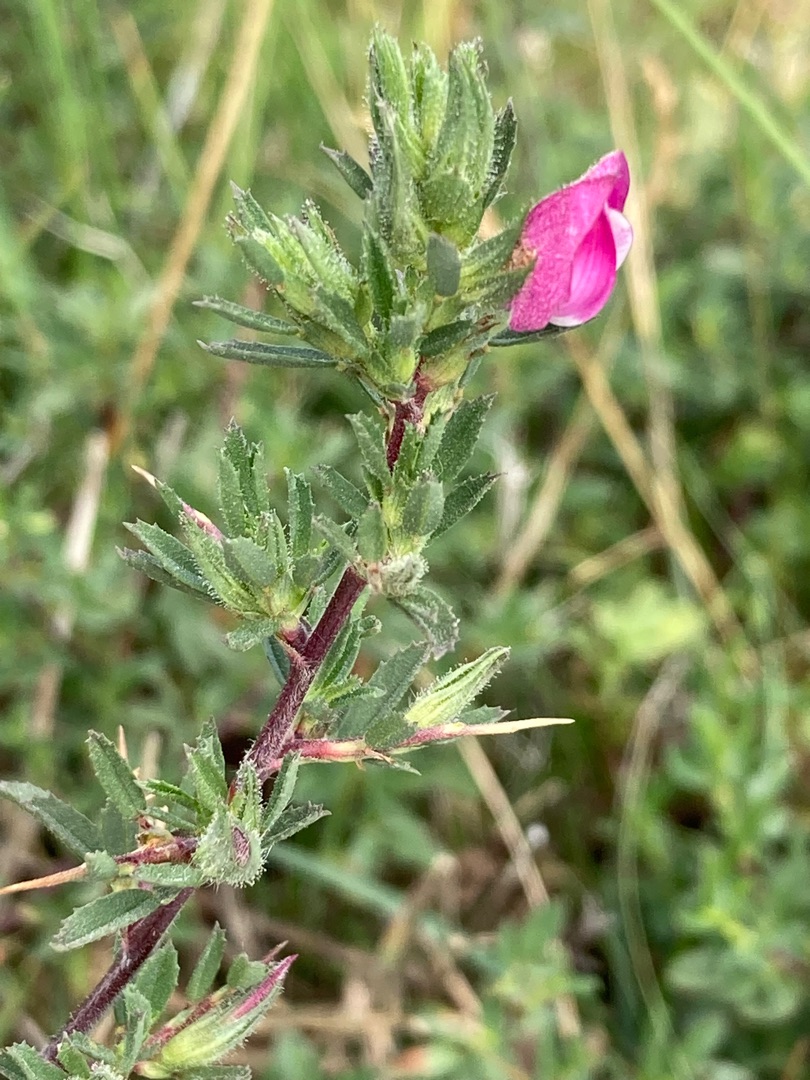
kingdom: Plantae
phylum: Tracheophyta
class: Magnoliopsida
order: Fabales
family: Fabaceae
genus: Ononis
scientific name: Ononis spinosa
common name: Strand-krageklo
